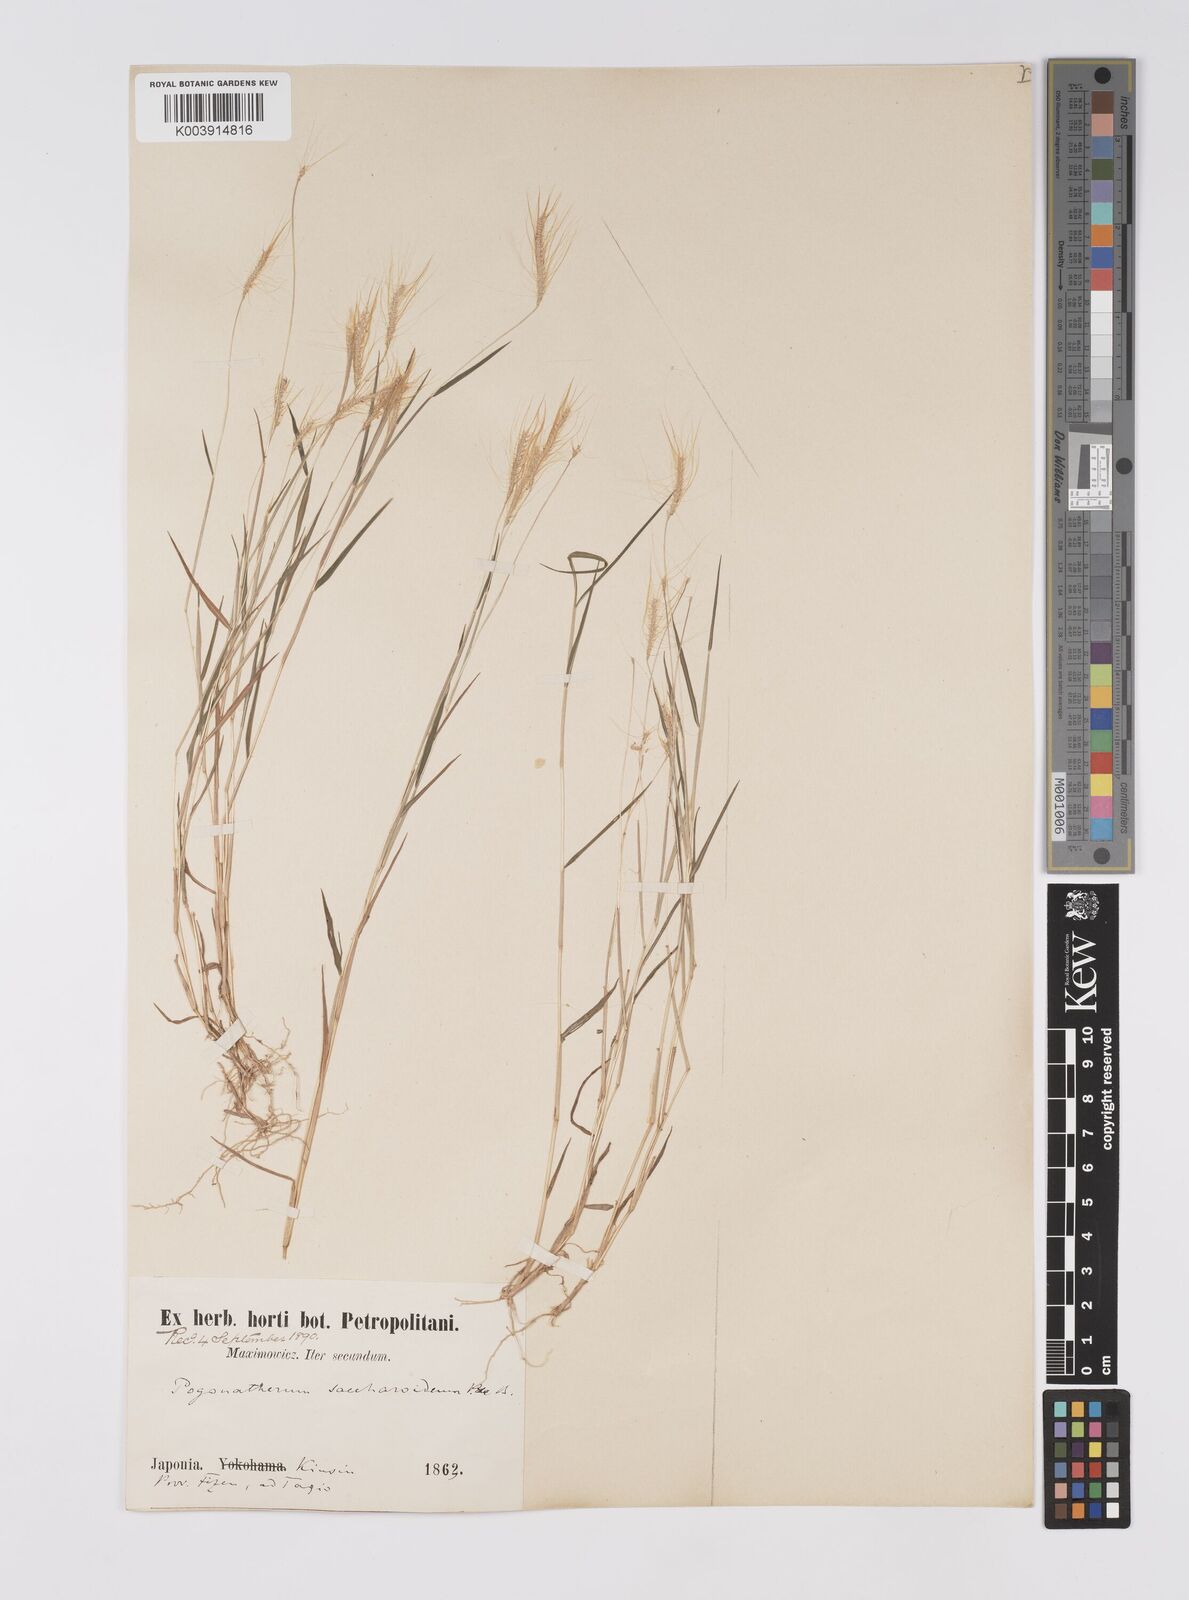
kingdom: Plantae
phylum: Tracheophyta
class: Liliopsida
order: Poales
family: Poaceae
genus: Pogonatherum
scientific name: Pogonatherum crinitum
